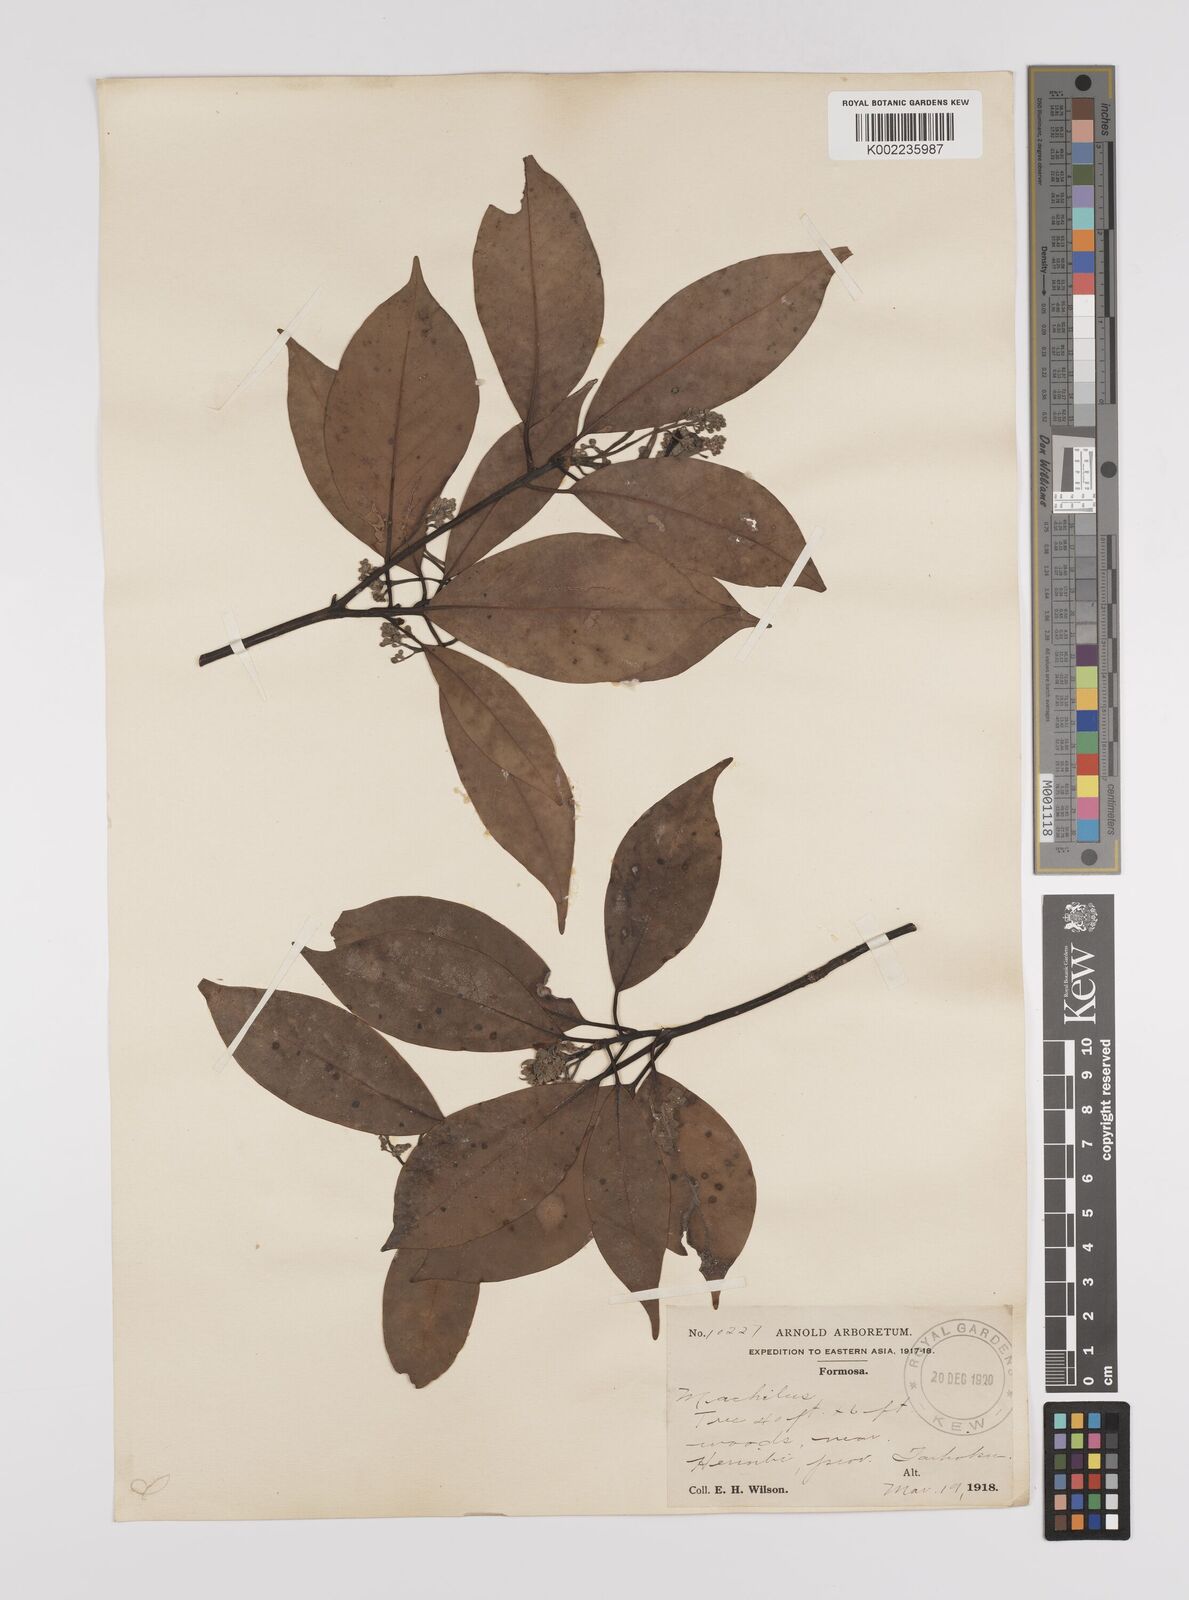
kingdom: Plantae
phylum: Tracheophyta
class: Magnoliopsida
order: Laurales
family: Lauraceae
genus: Persea
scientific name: Persea
